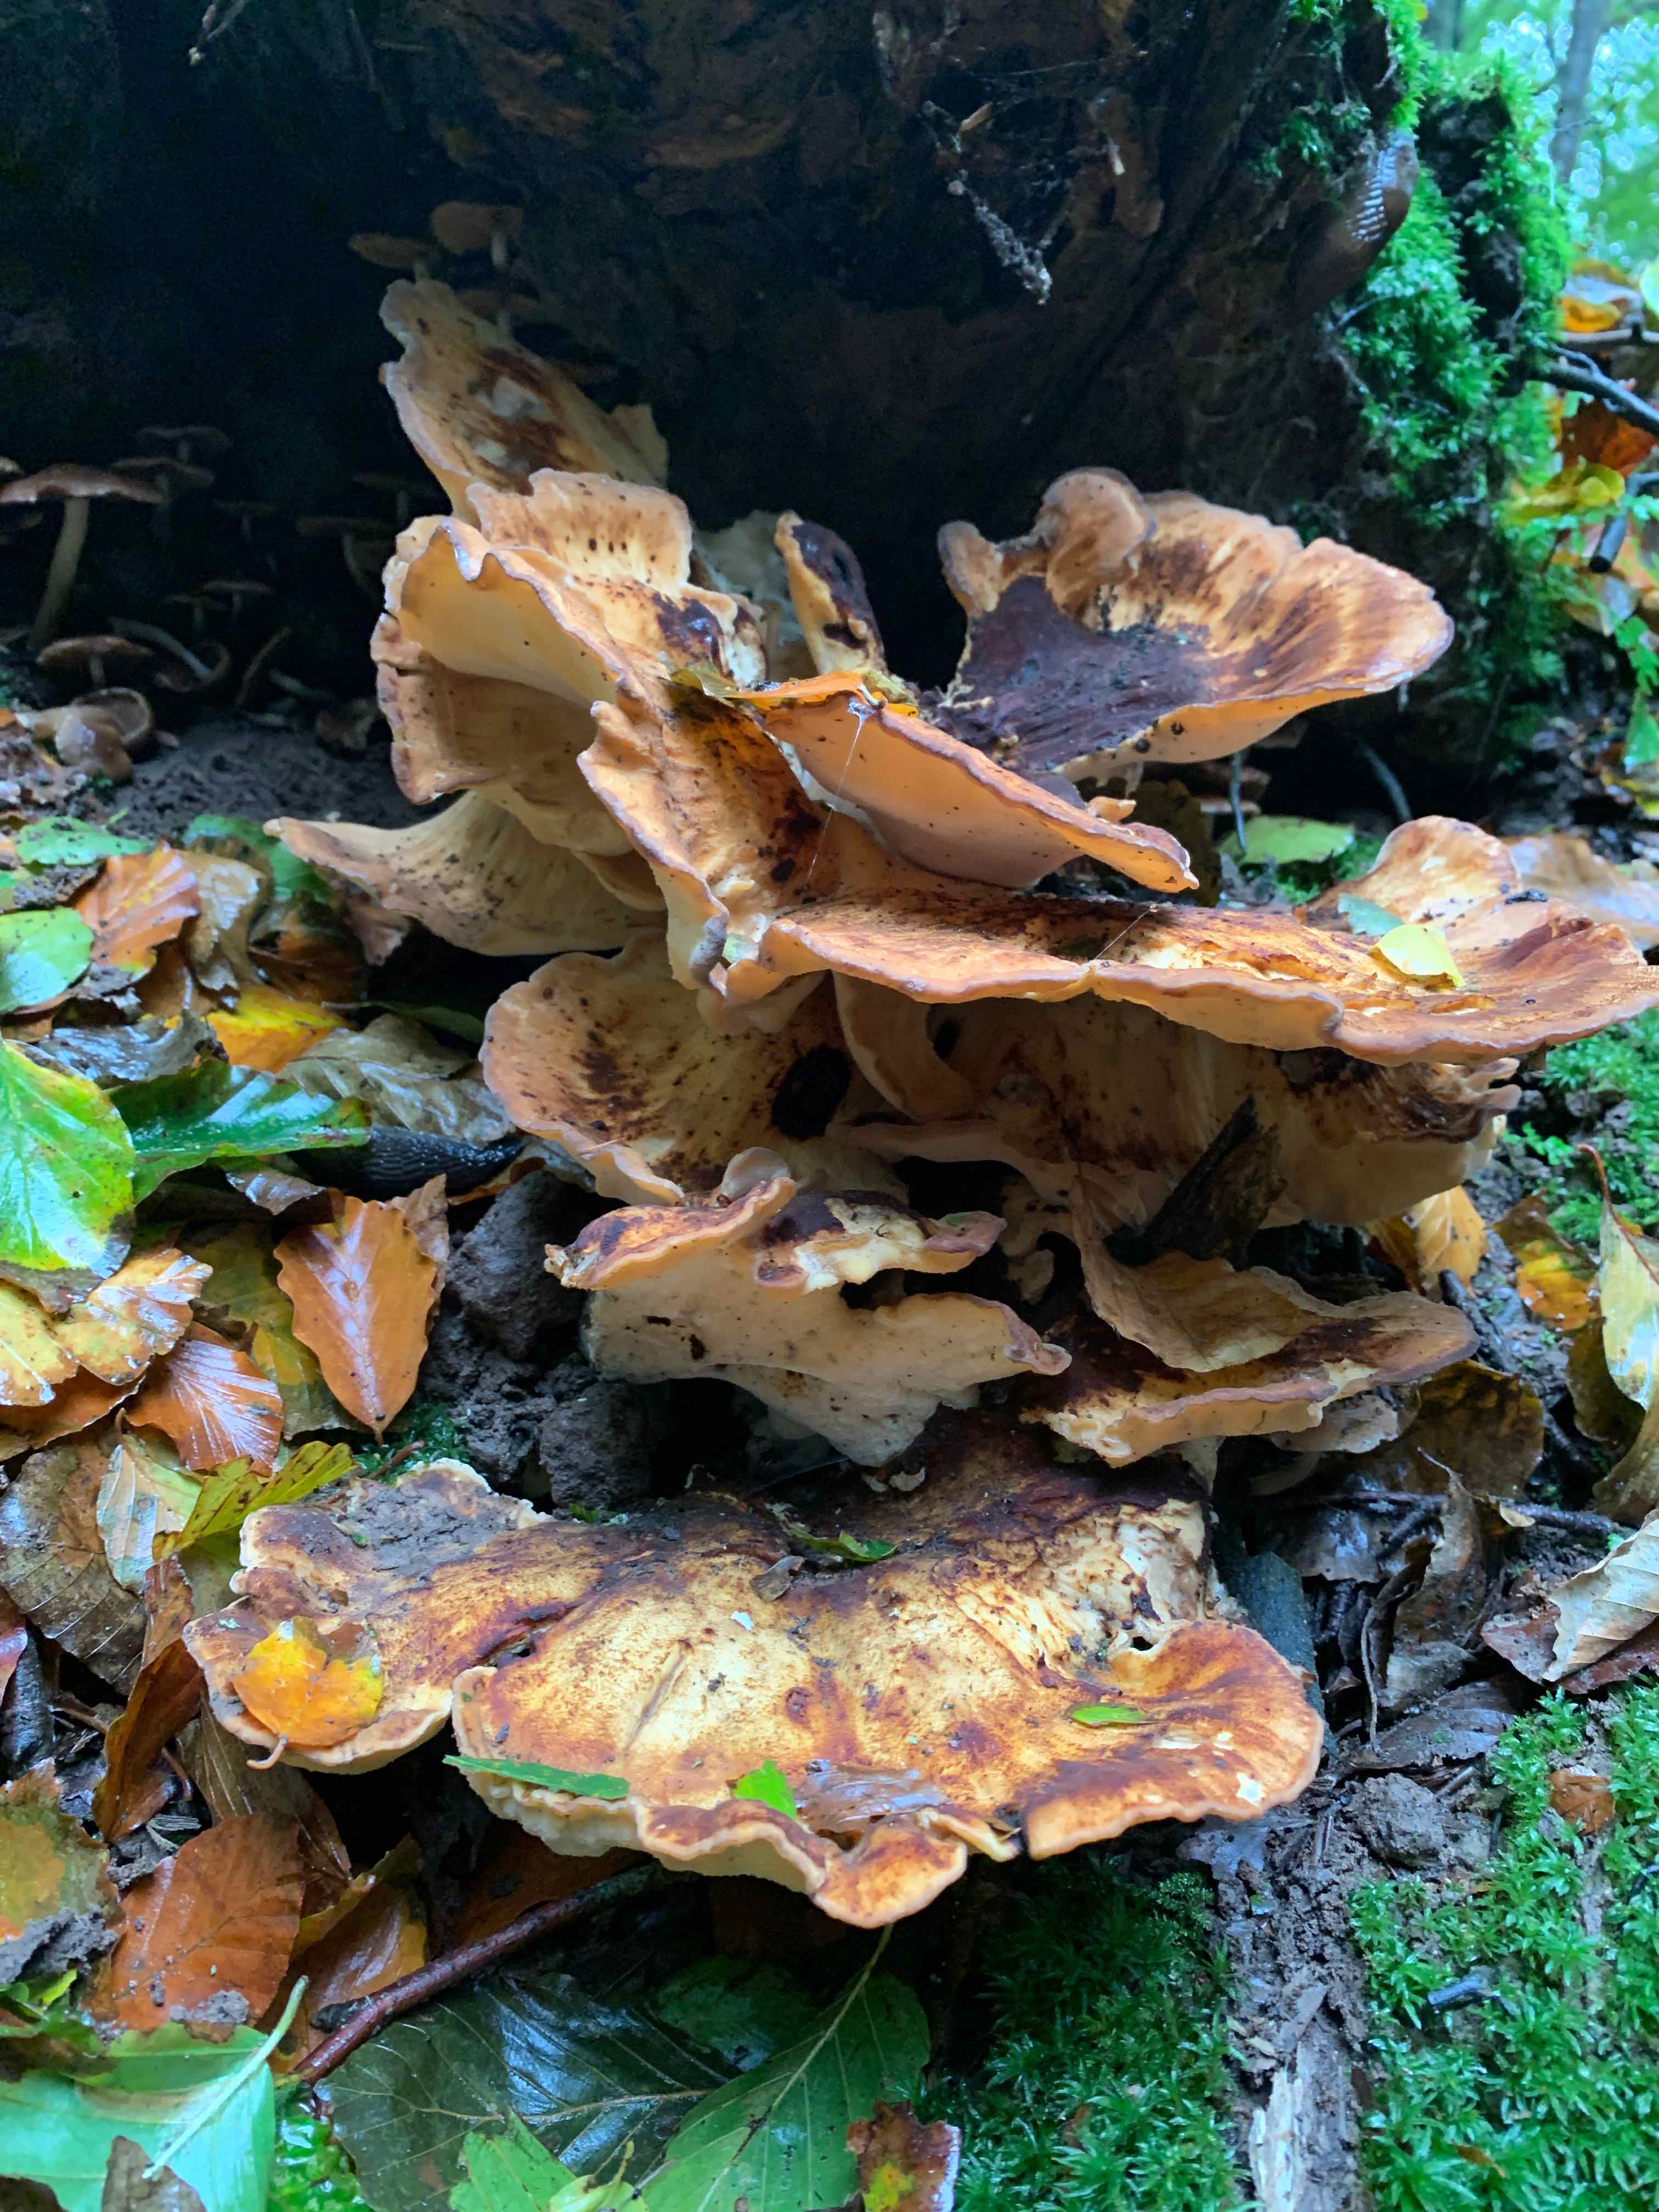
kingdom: Fungi
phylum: Basidiomycota
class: Agaricomycetes
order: Polyporales
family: Meripilaceae
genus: Meripilus
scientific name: Meripilus giganteus
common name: kæmpeporesvamp
